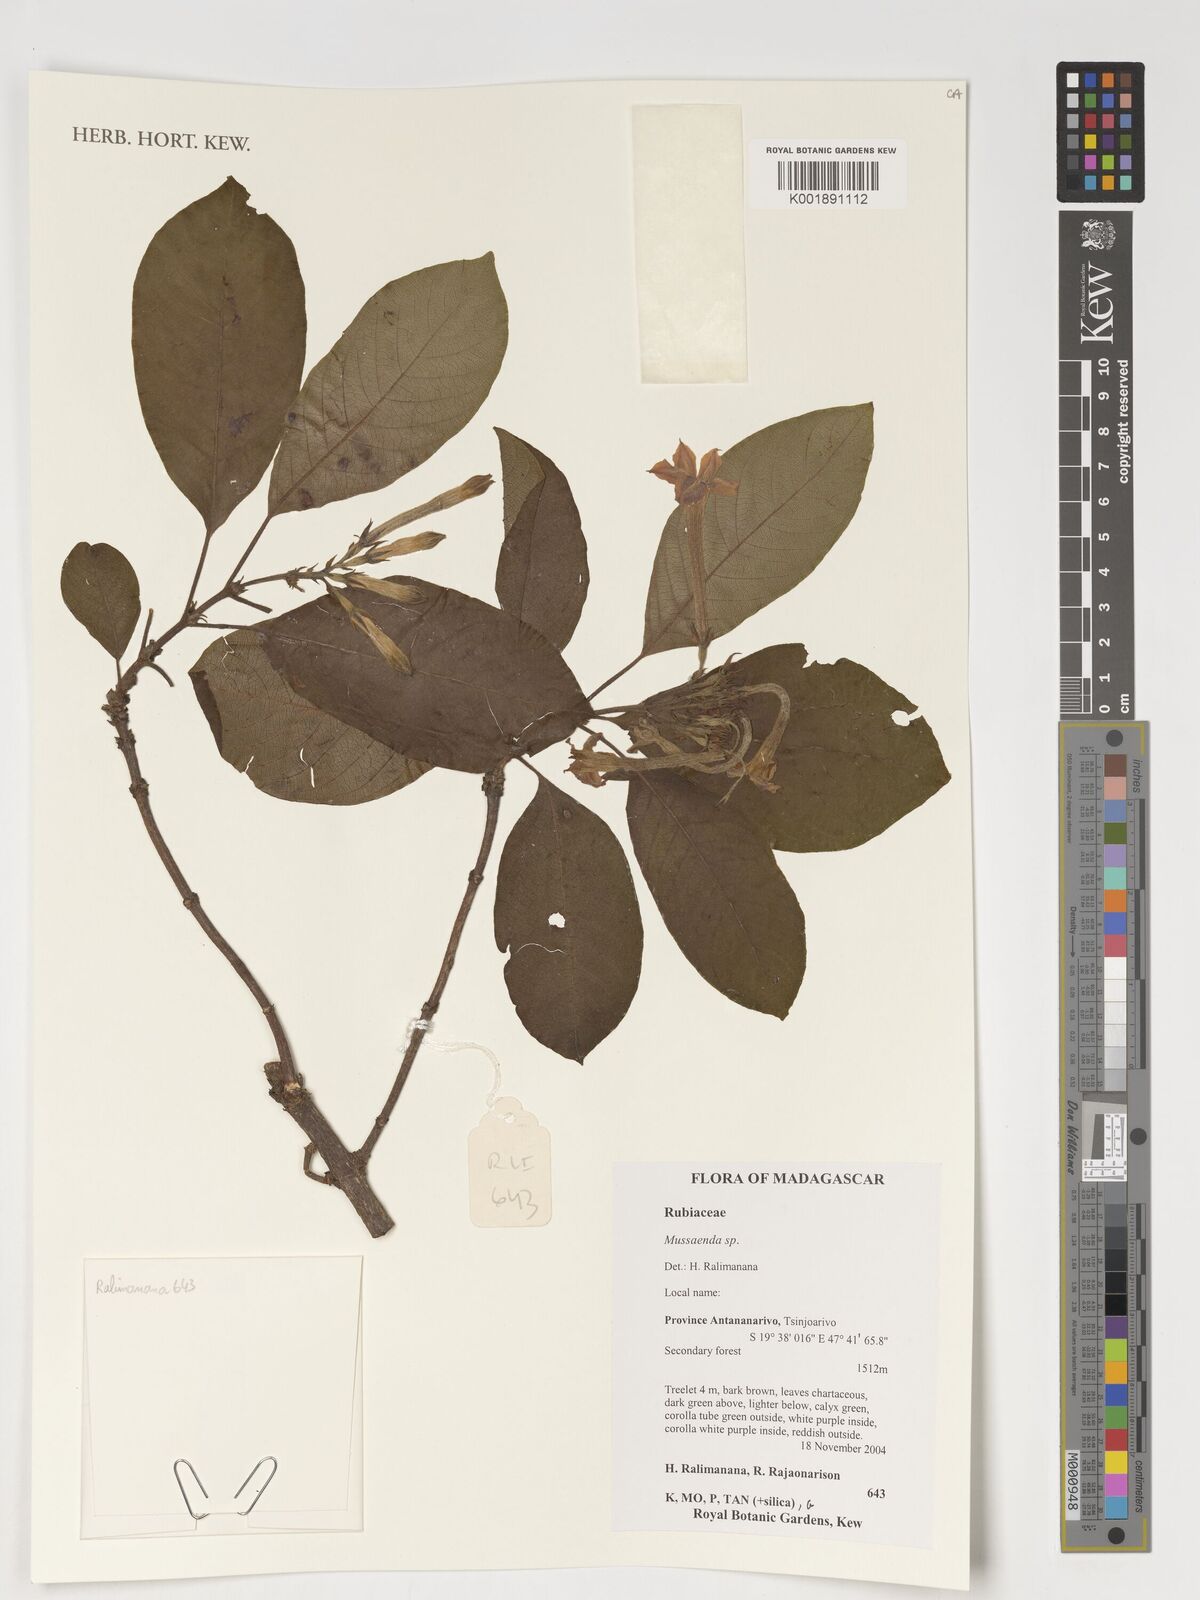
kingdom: Plantae
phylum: Tracheophyta
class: Magnoliopsida
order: Gentianales
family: Rubiaceae
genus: Mussaenda
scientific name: Mussaenda
